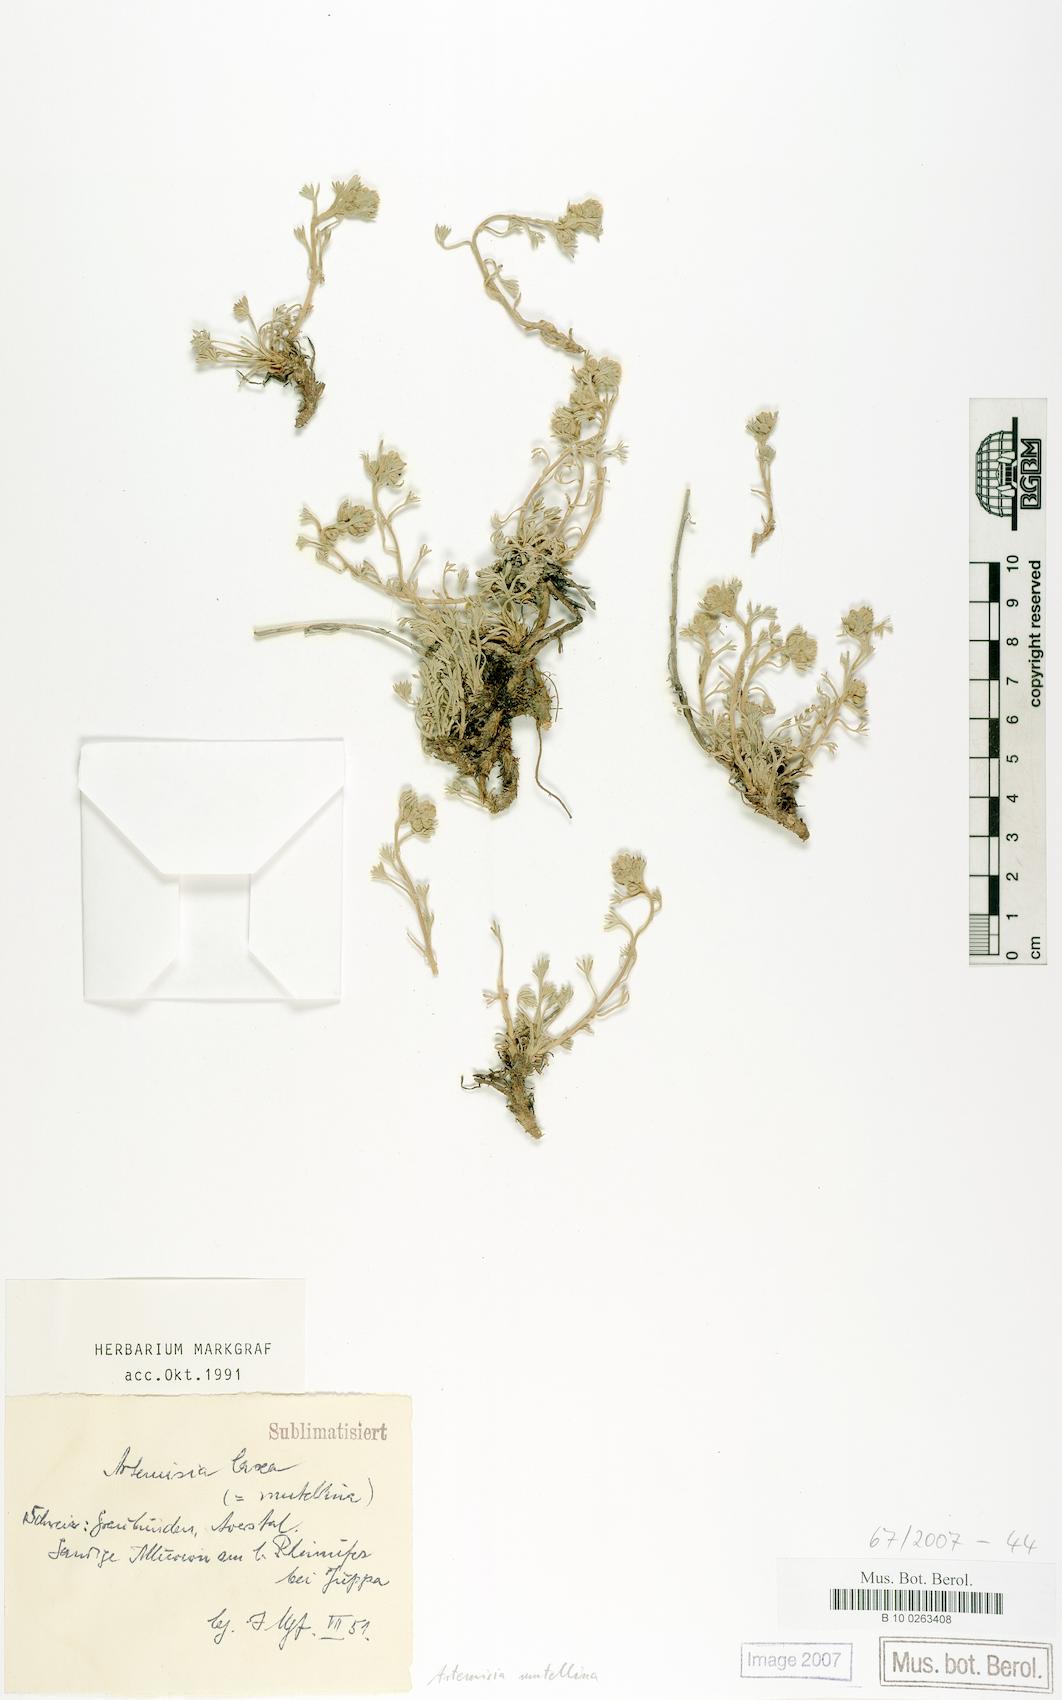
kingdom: Plantae
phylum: Tracheophyta
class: Magnoliopsida
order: Asterales
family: Asteraceae
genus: Artemisia
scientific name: Artemisia mutellina
